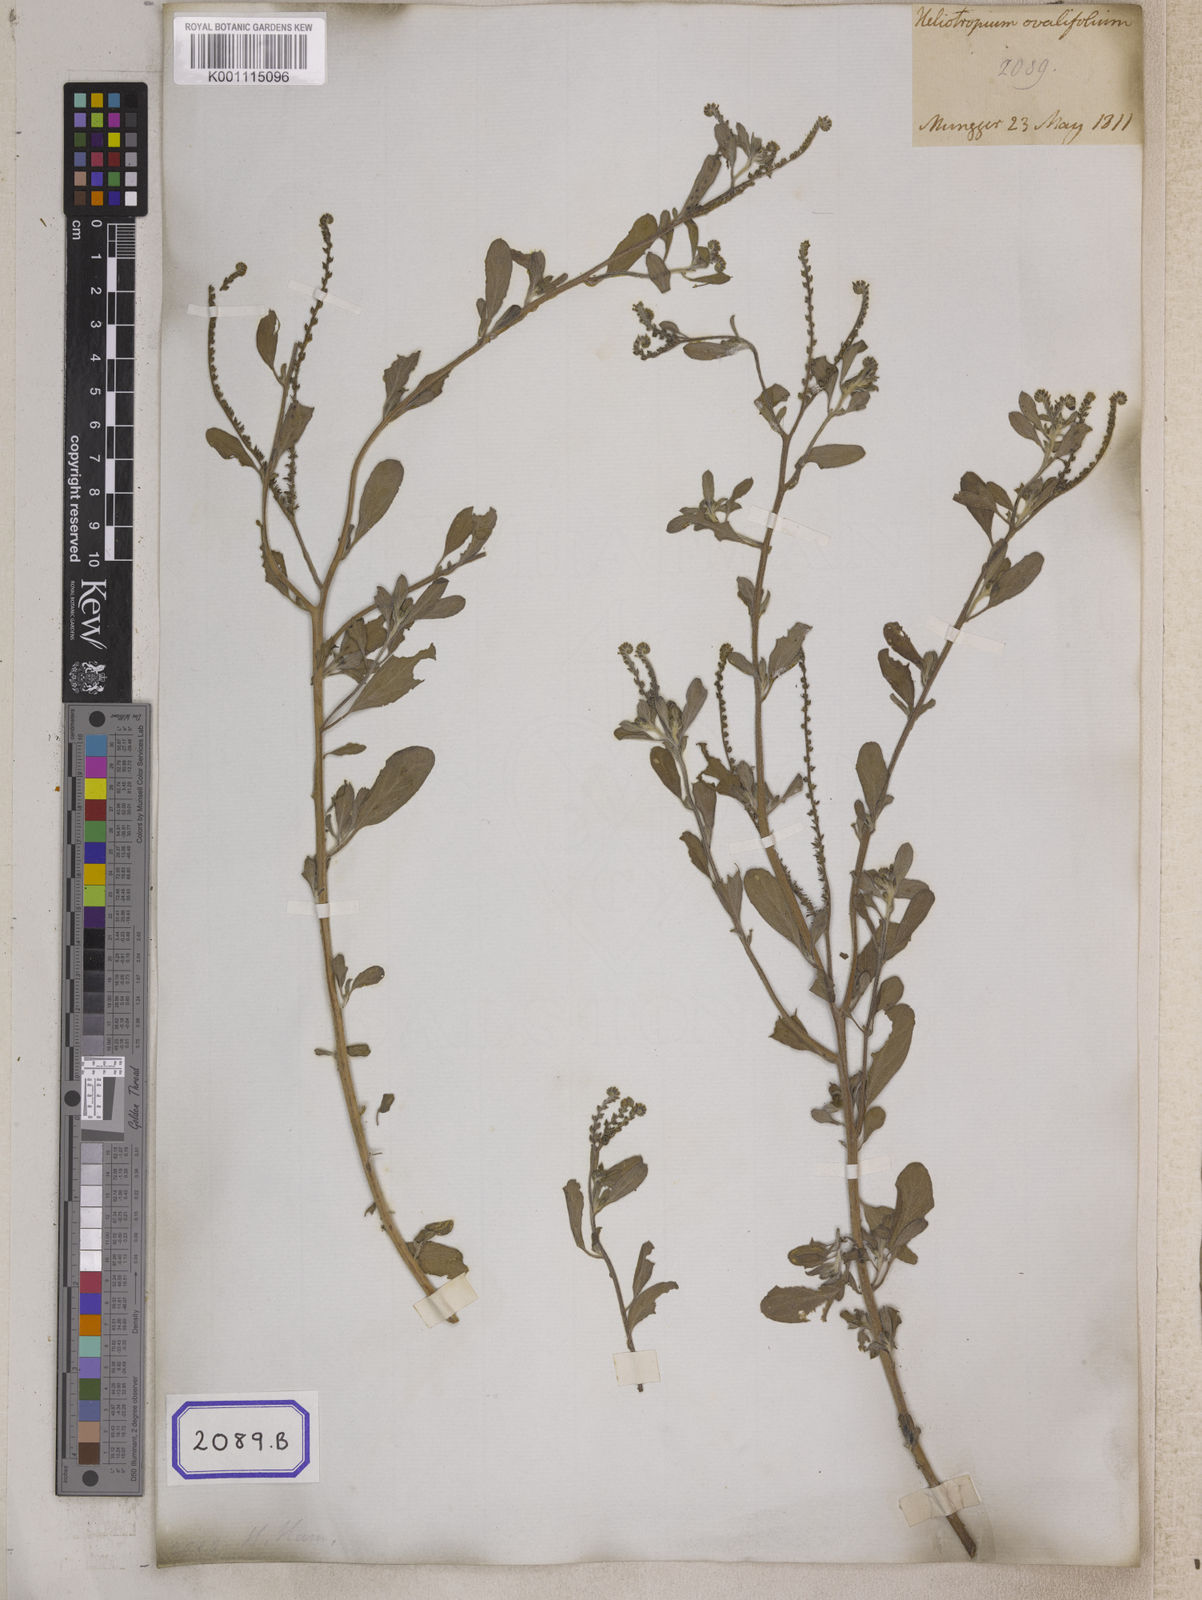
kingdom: Plantae
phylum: Tracheophyta
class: Magnoliopsida
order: Boraginales
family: Heliotropiaceae
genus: Euploca
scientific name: Euploca ovalifolia
